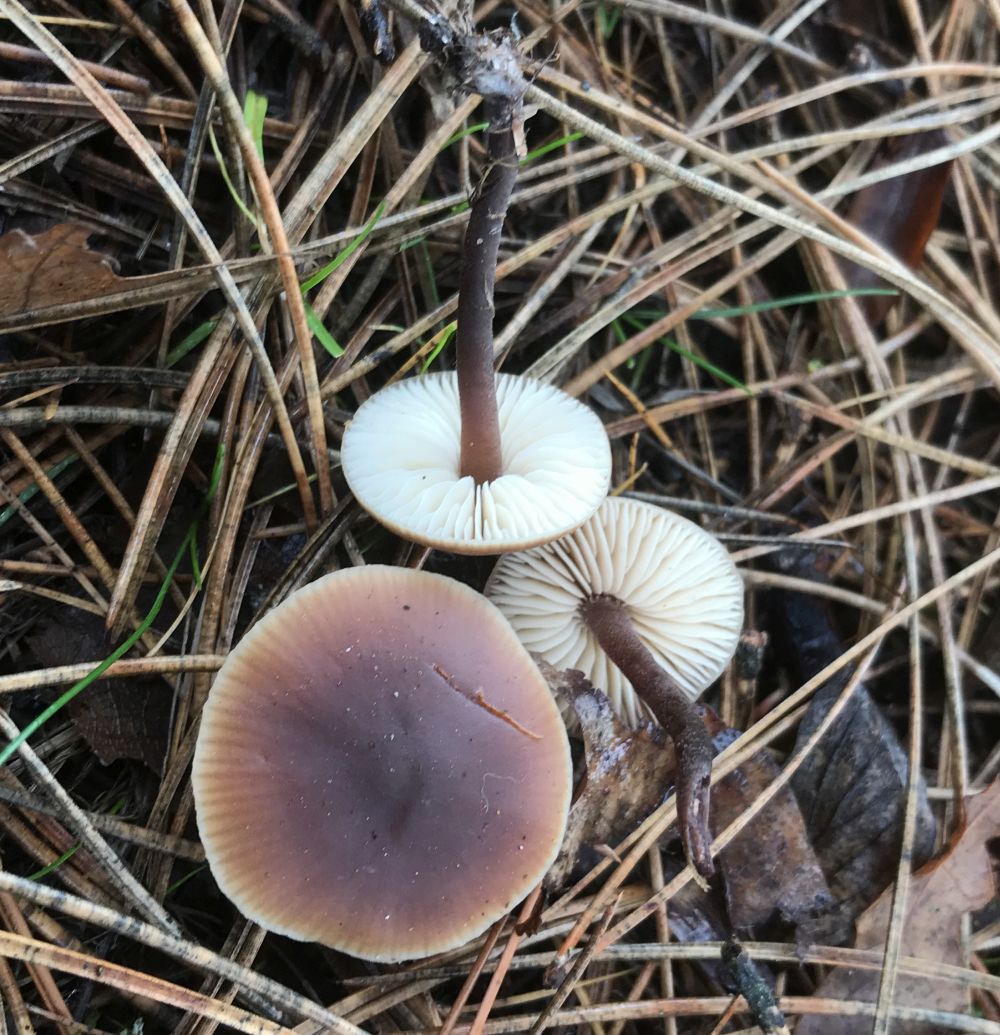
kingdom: Fungi
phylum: Basidiomycota
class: Agaricomycetes
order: Agaricales
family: Macrocystidiaceae
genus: Macrocystidia
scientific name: Macrocystidia cucumis
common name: agurkehat
